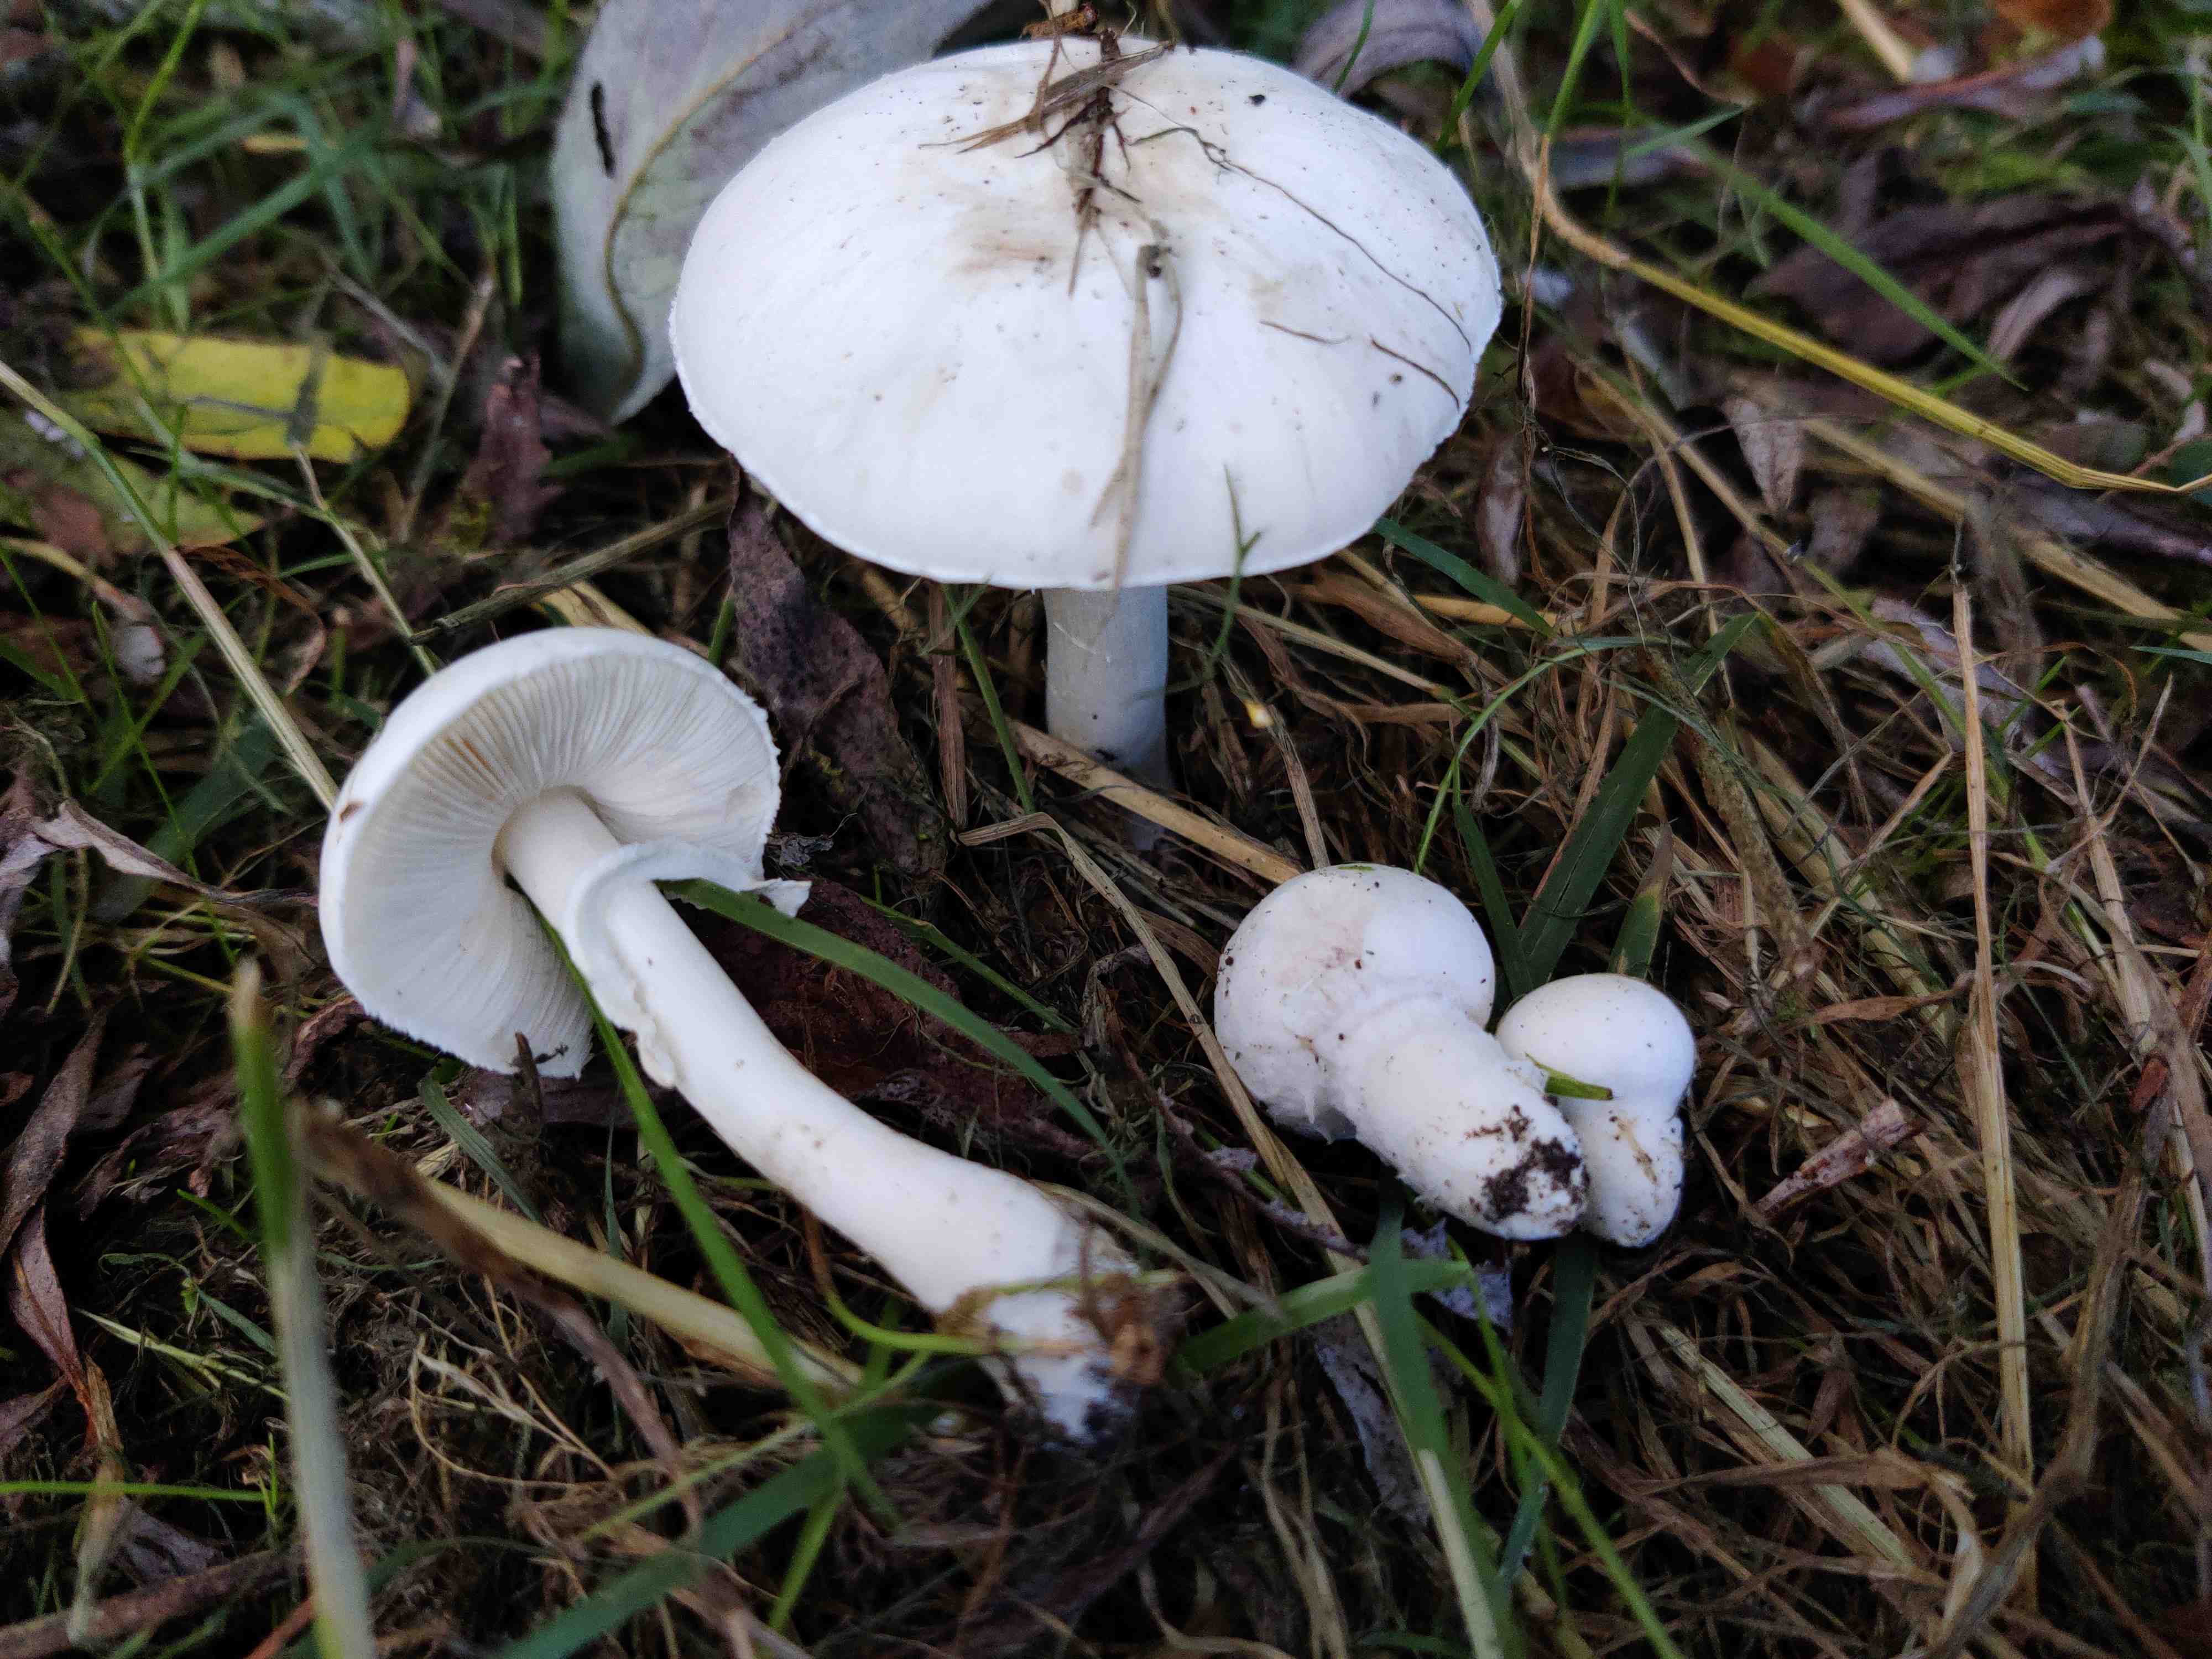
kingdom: Fungi
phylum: Basidiomycota
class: Agaricomycetes
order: Agaricales
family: Agaricaceae
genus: Leucoagaricus
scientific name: Leucoagaricus leucothites
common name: rosabladet silkehat
